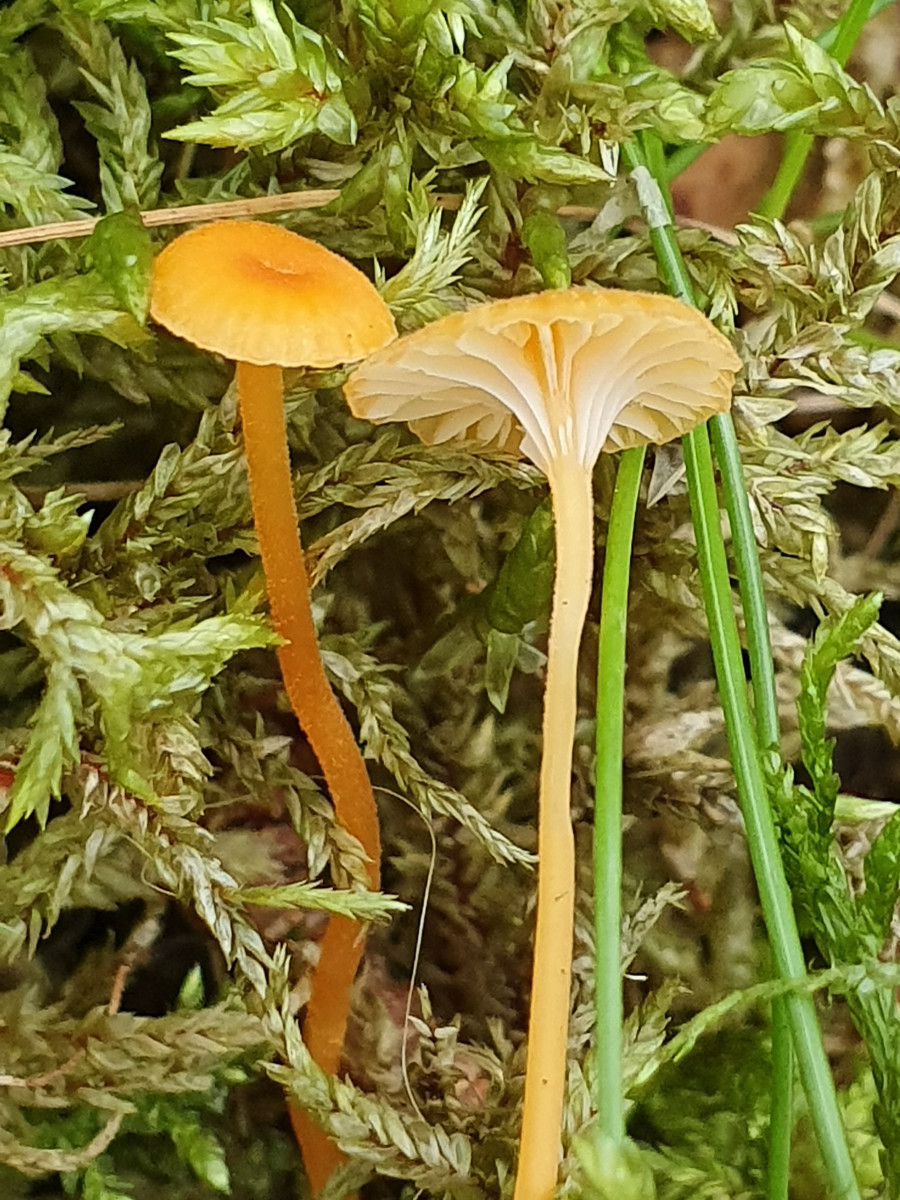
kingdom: Fungi
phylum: Basidiomycota
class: Agaricomycetes
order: Hymenochaetales
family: Rickenellaceae
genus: Rickenella
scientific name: Rickenella fibula
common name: orange mosnavlehat
